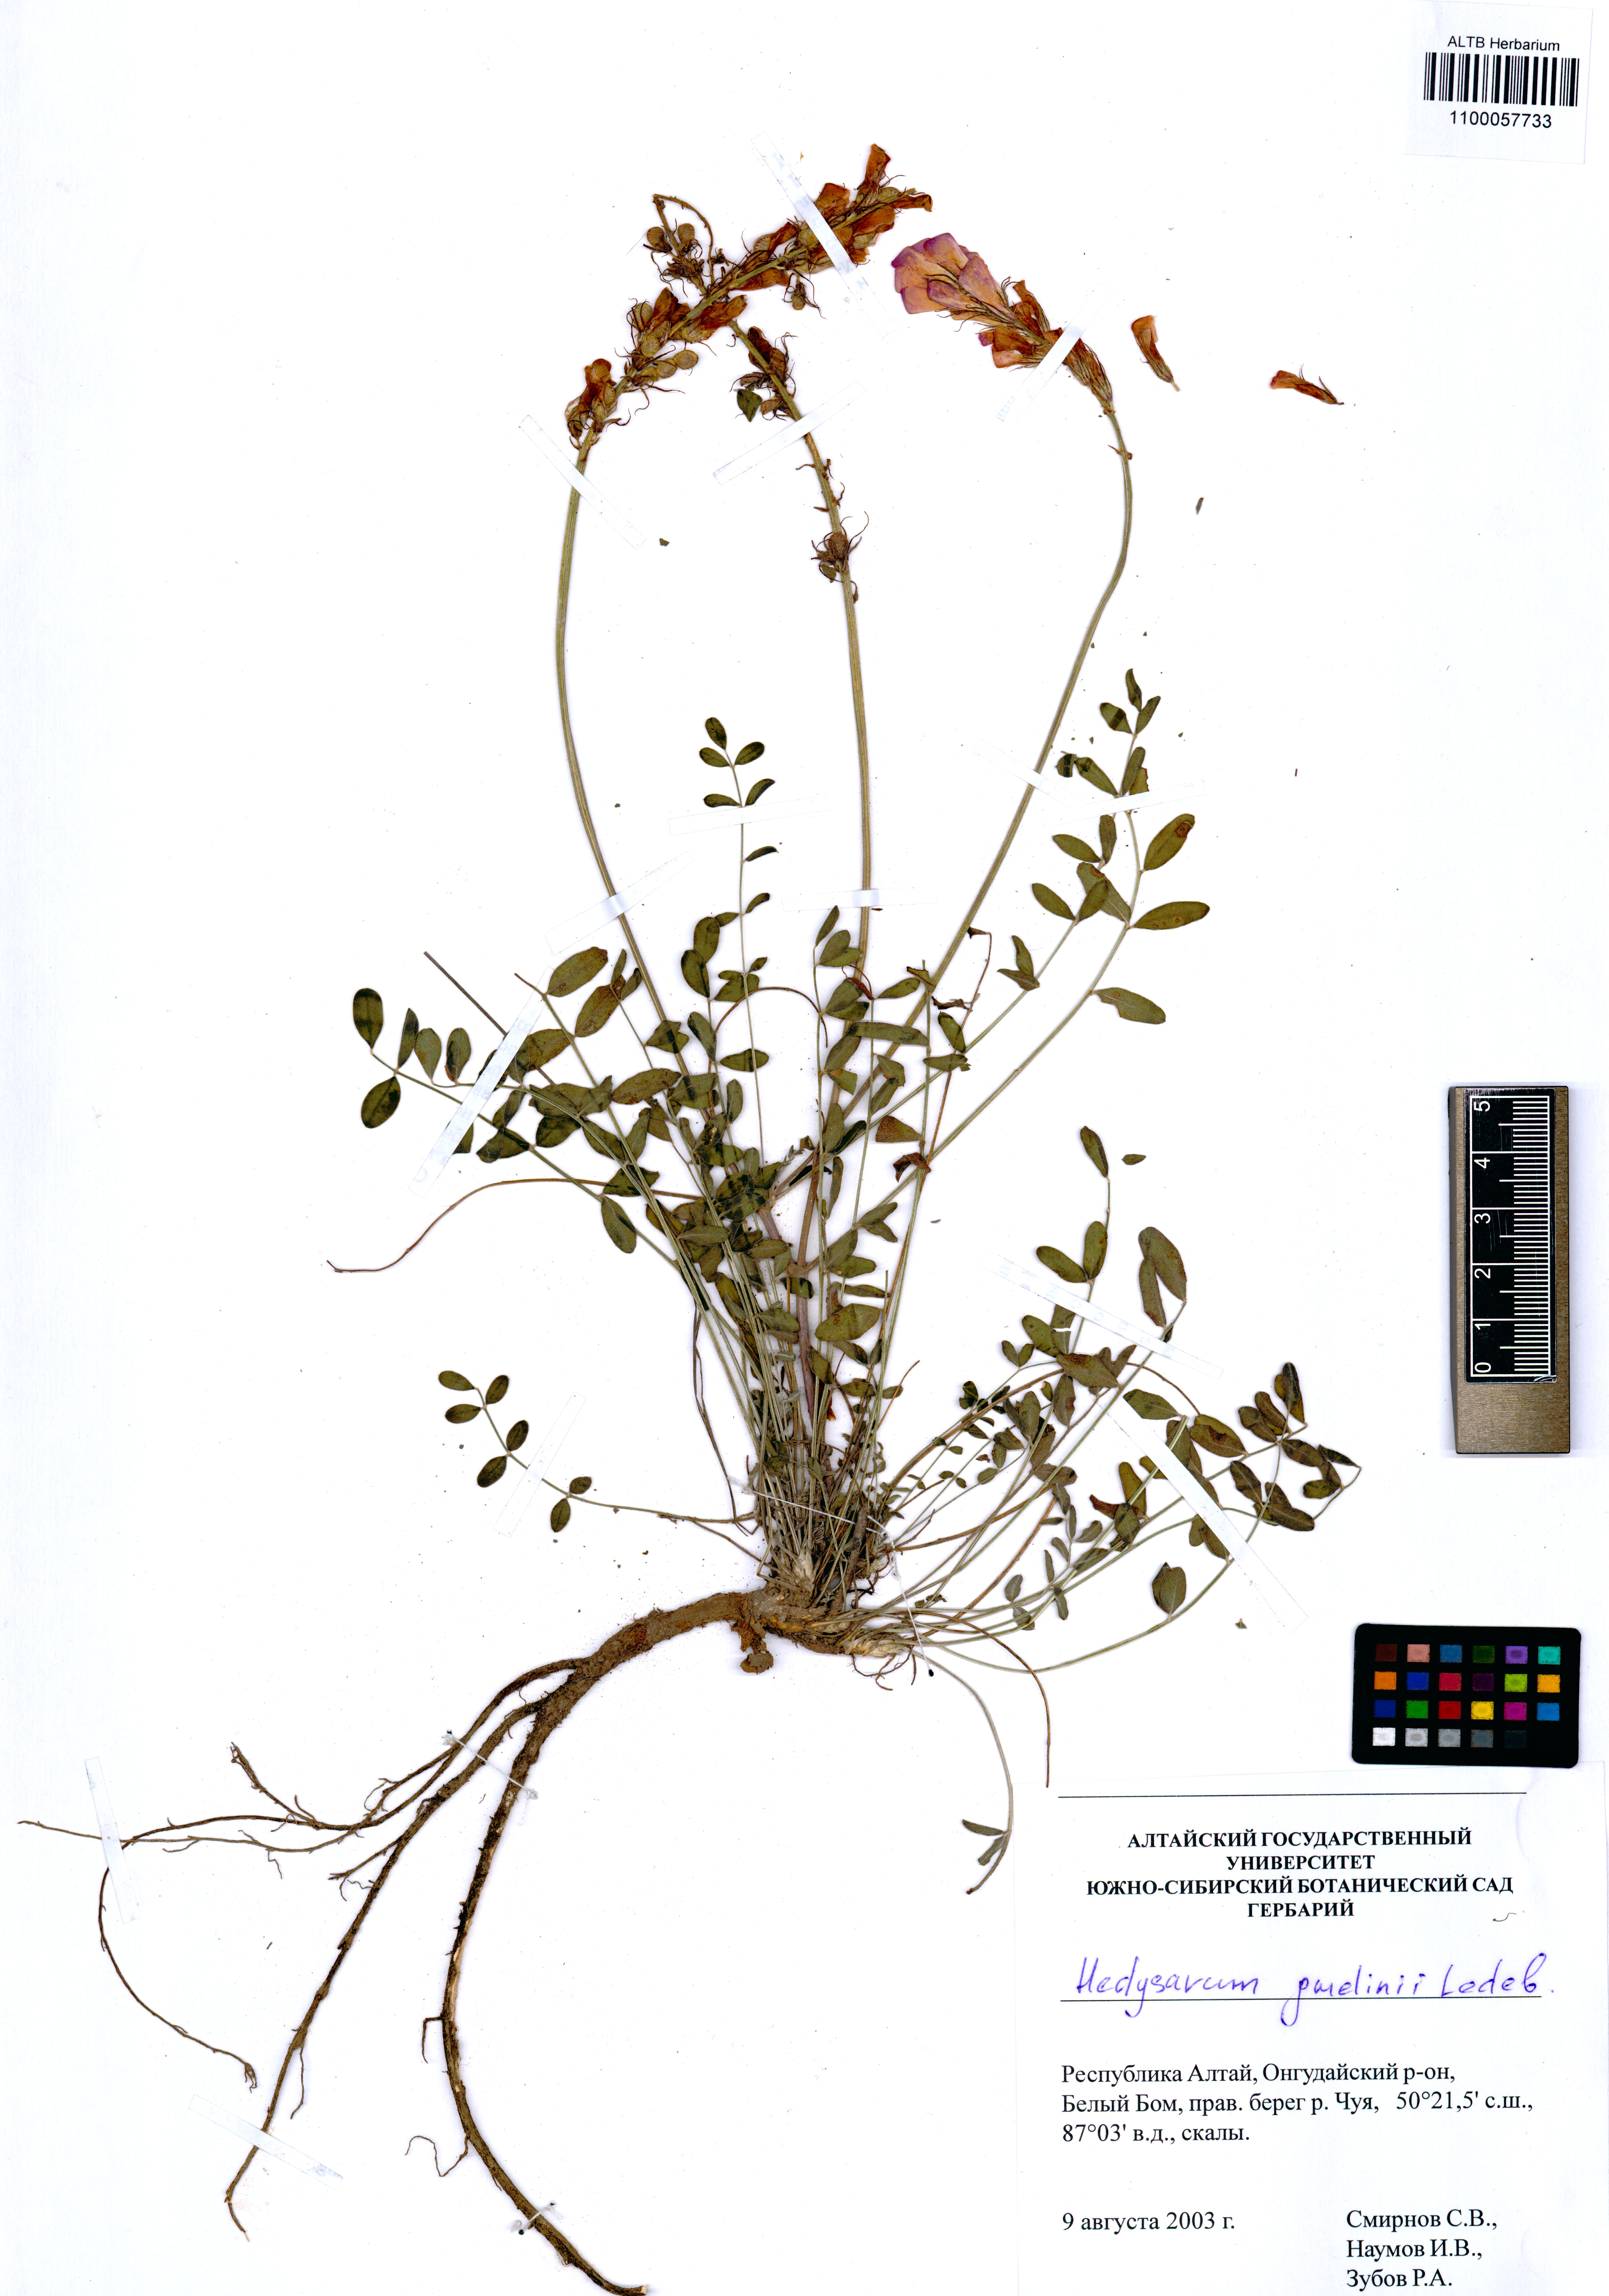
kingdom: Plantae
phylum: Tracheophyta
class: Magnoliopsida
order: Fabales
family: Fabaceae
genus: Hedysarum
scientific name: Hedysarum gmelinii
